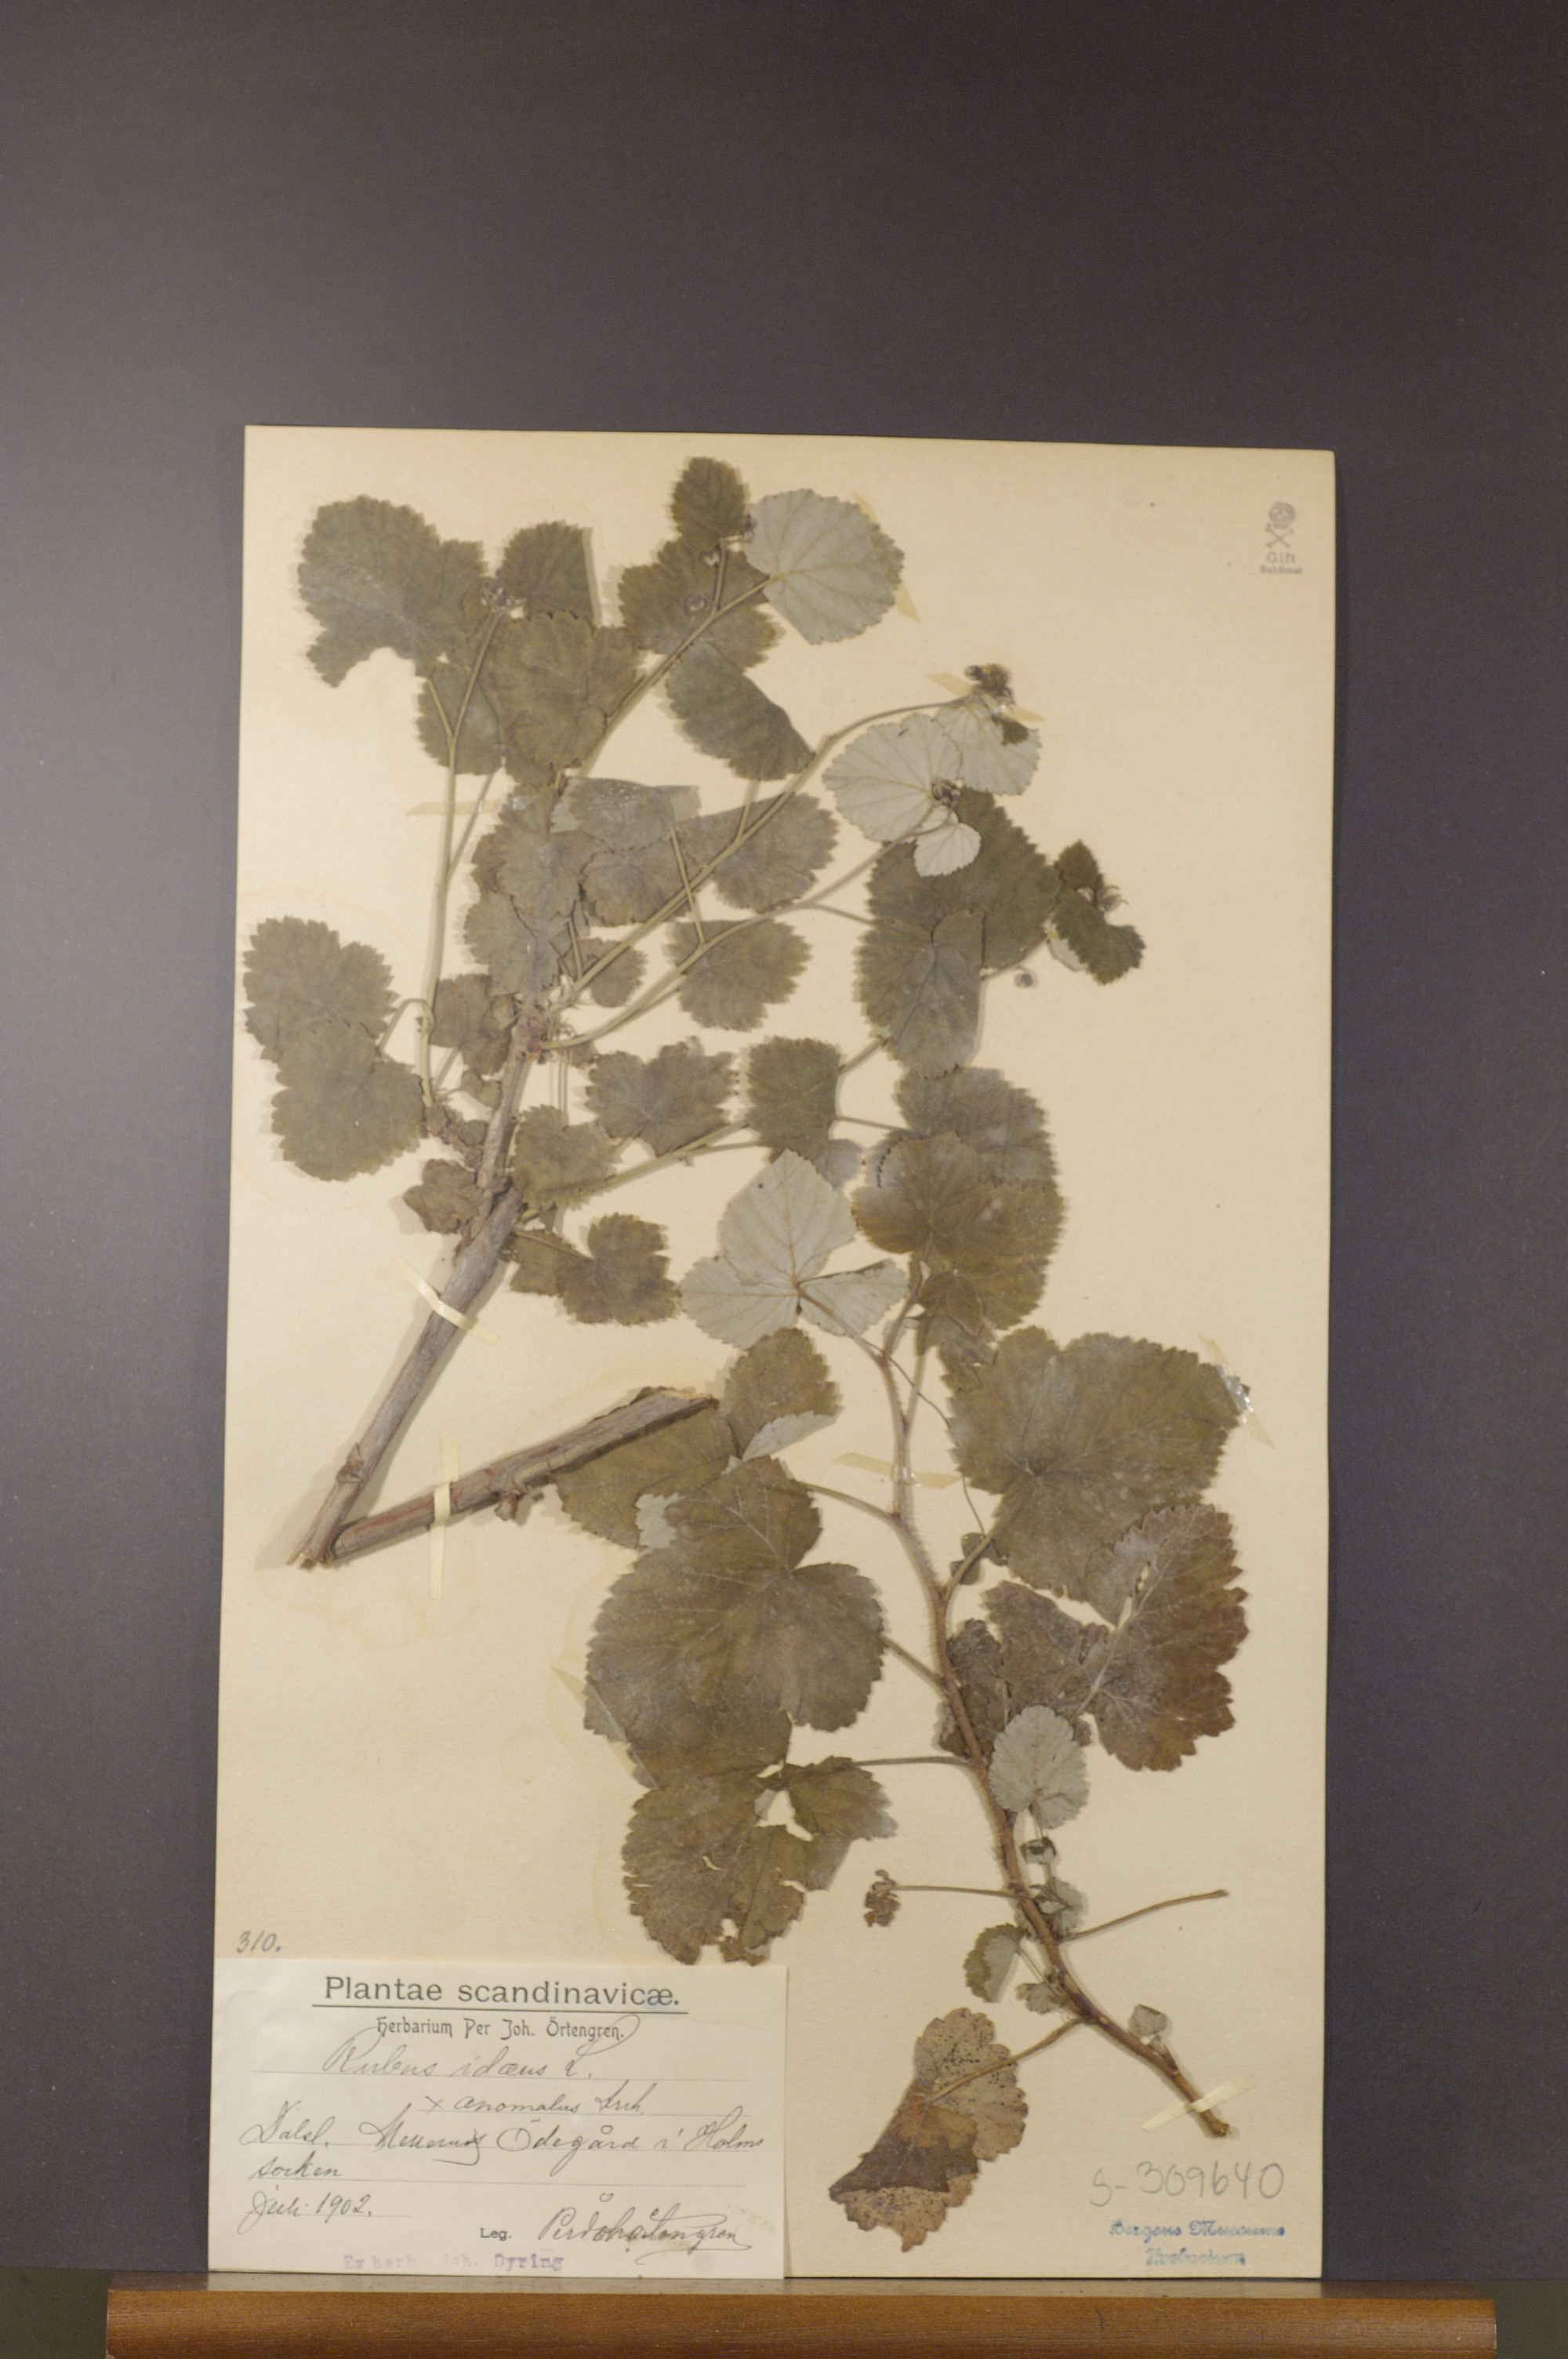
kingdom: Plantae
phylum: Tracheophyta
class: Magnoliopsida
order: Rosales
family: Rosaceae
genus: Rubus
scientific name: Rubus idaeus
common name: Raspberry
